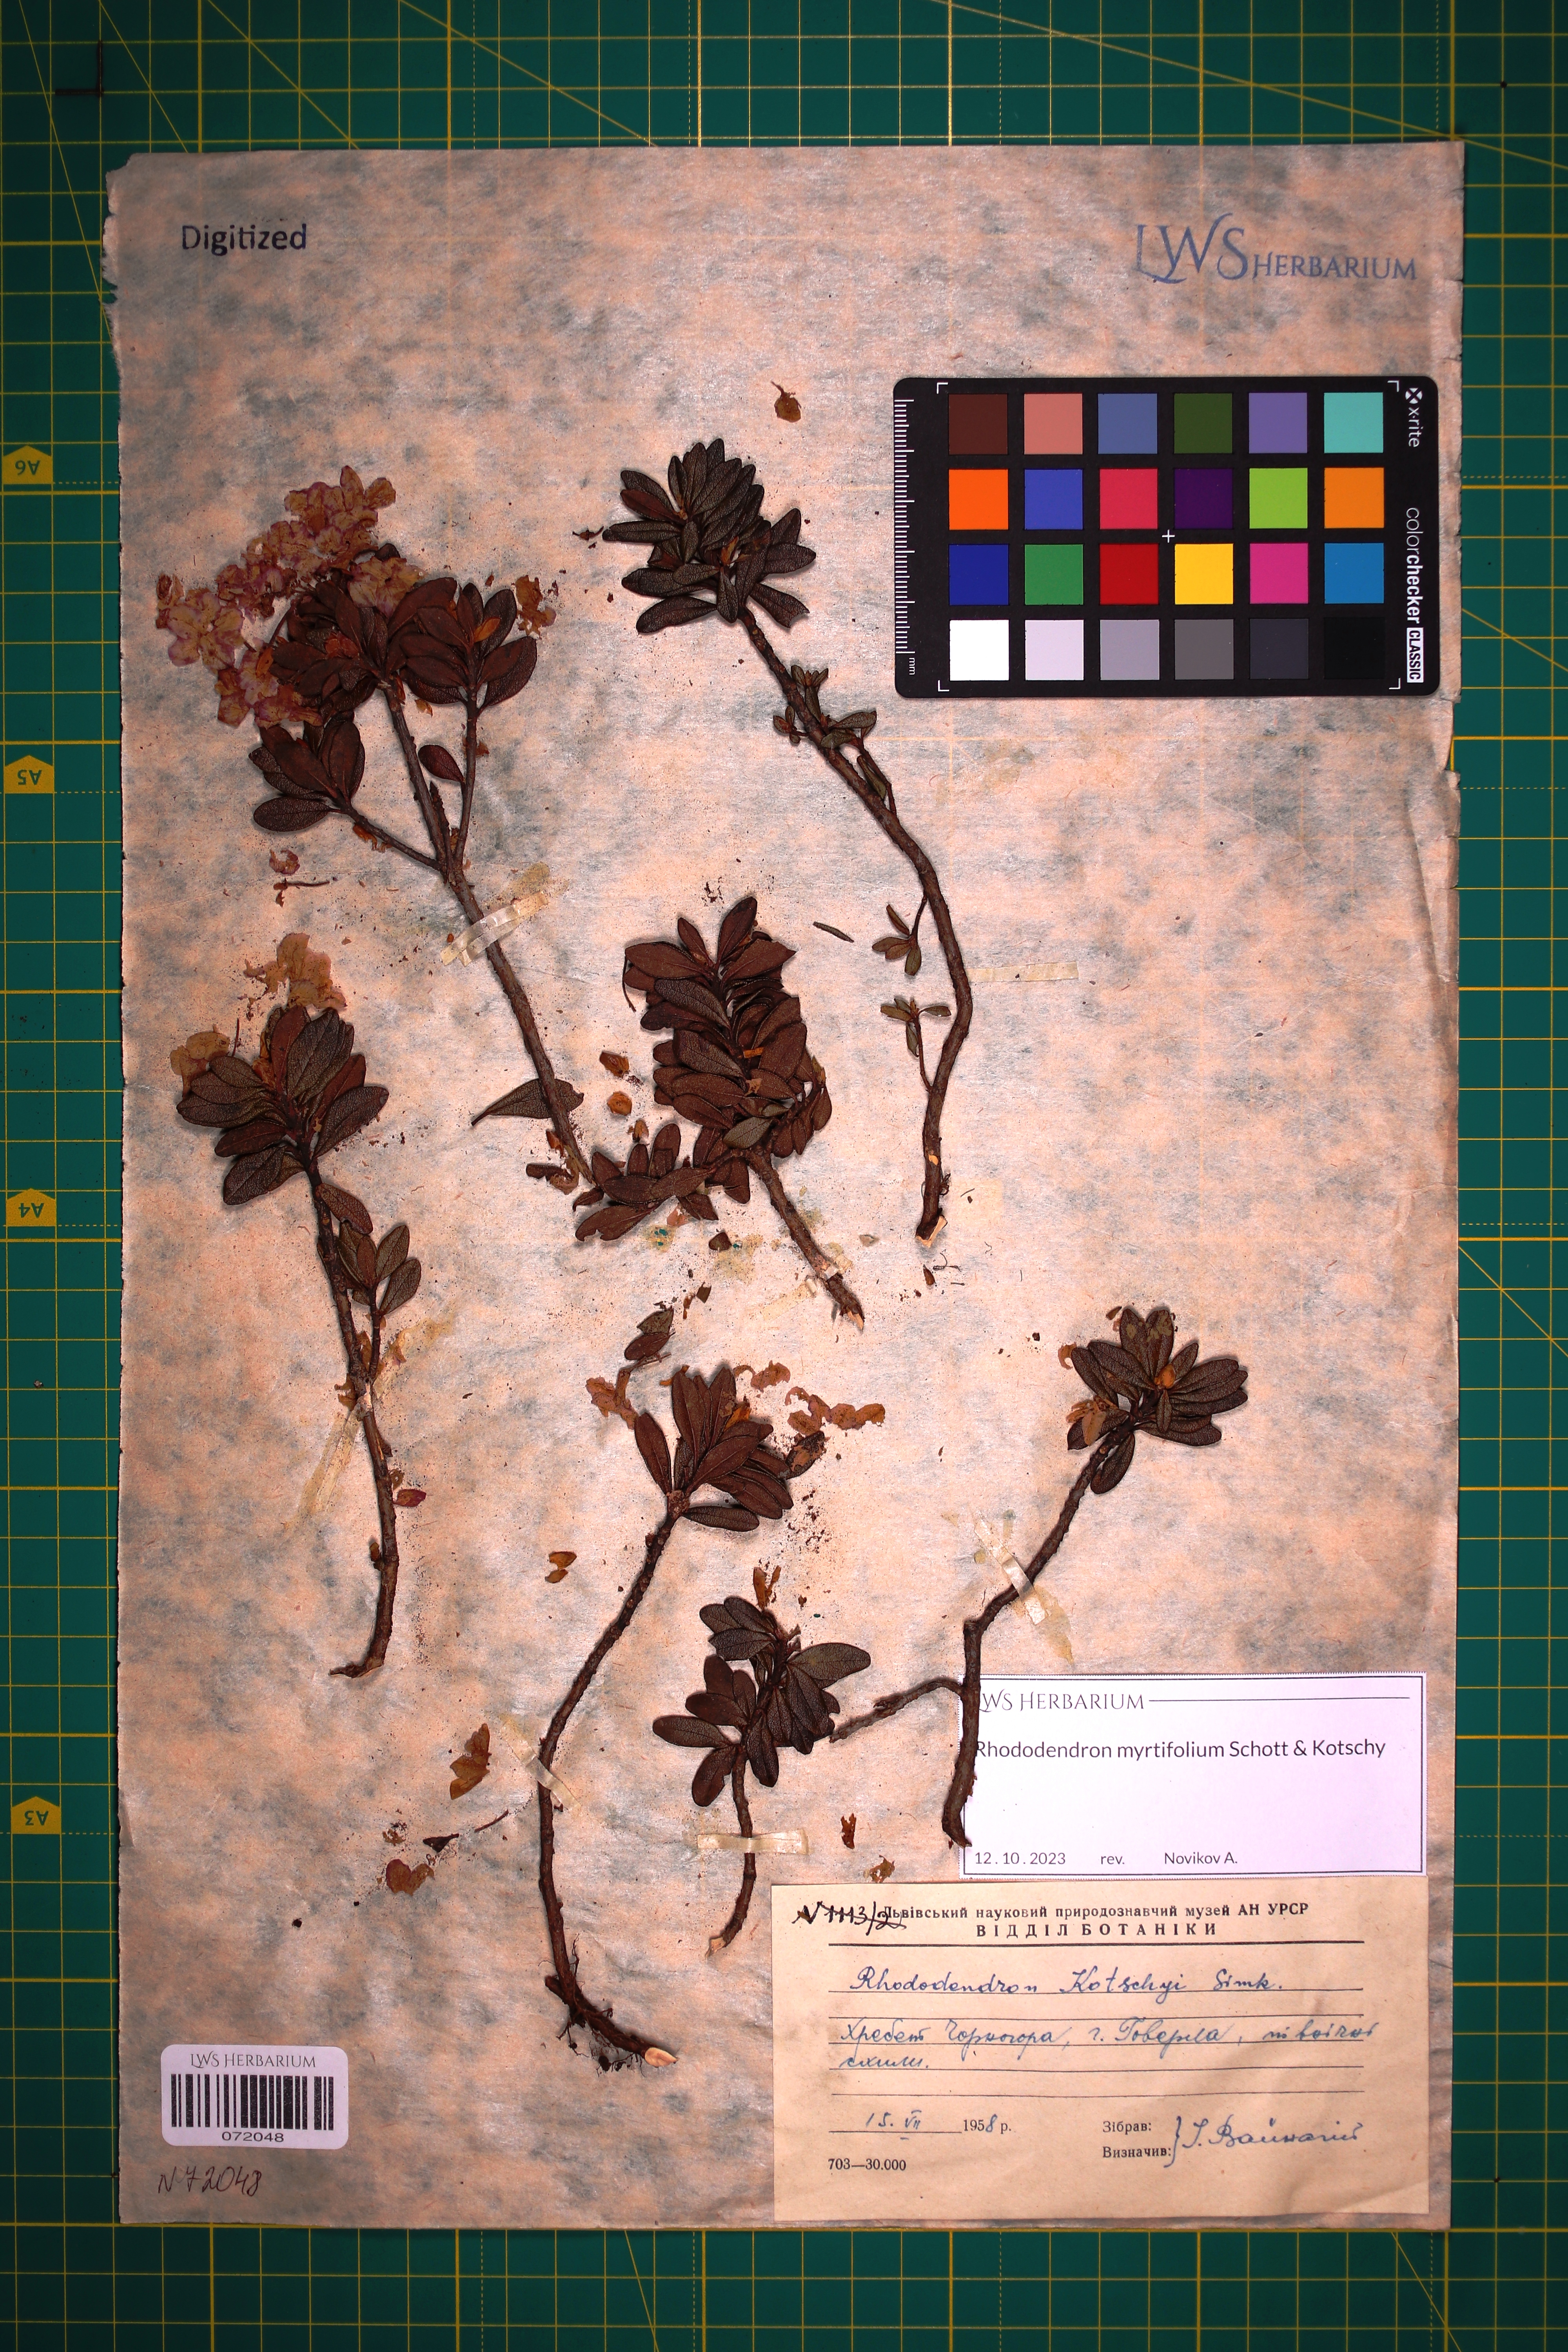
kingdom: Plantae
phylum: Tracheophyta
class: Magnoliopsida
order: Ericales
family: Ericaceae
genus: Rhododendron
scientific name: Rhododendron kotschyi
